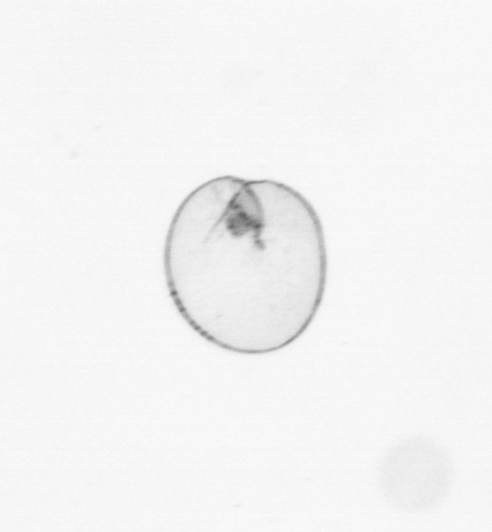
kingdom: Chromista
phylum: Myzozoa
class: Dinophyceae
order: Noctilucales
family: Noctilucaceae
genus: Noctiluca
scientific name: Noctiluca scintillans
